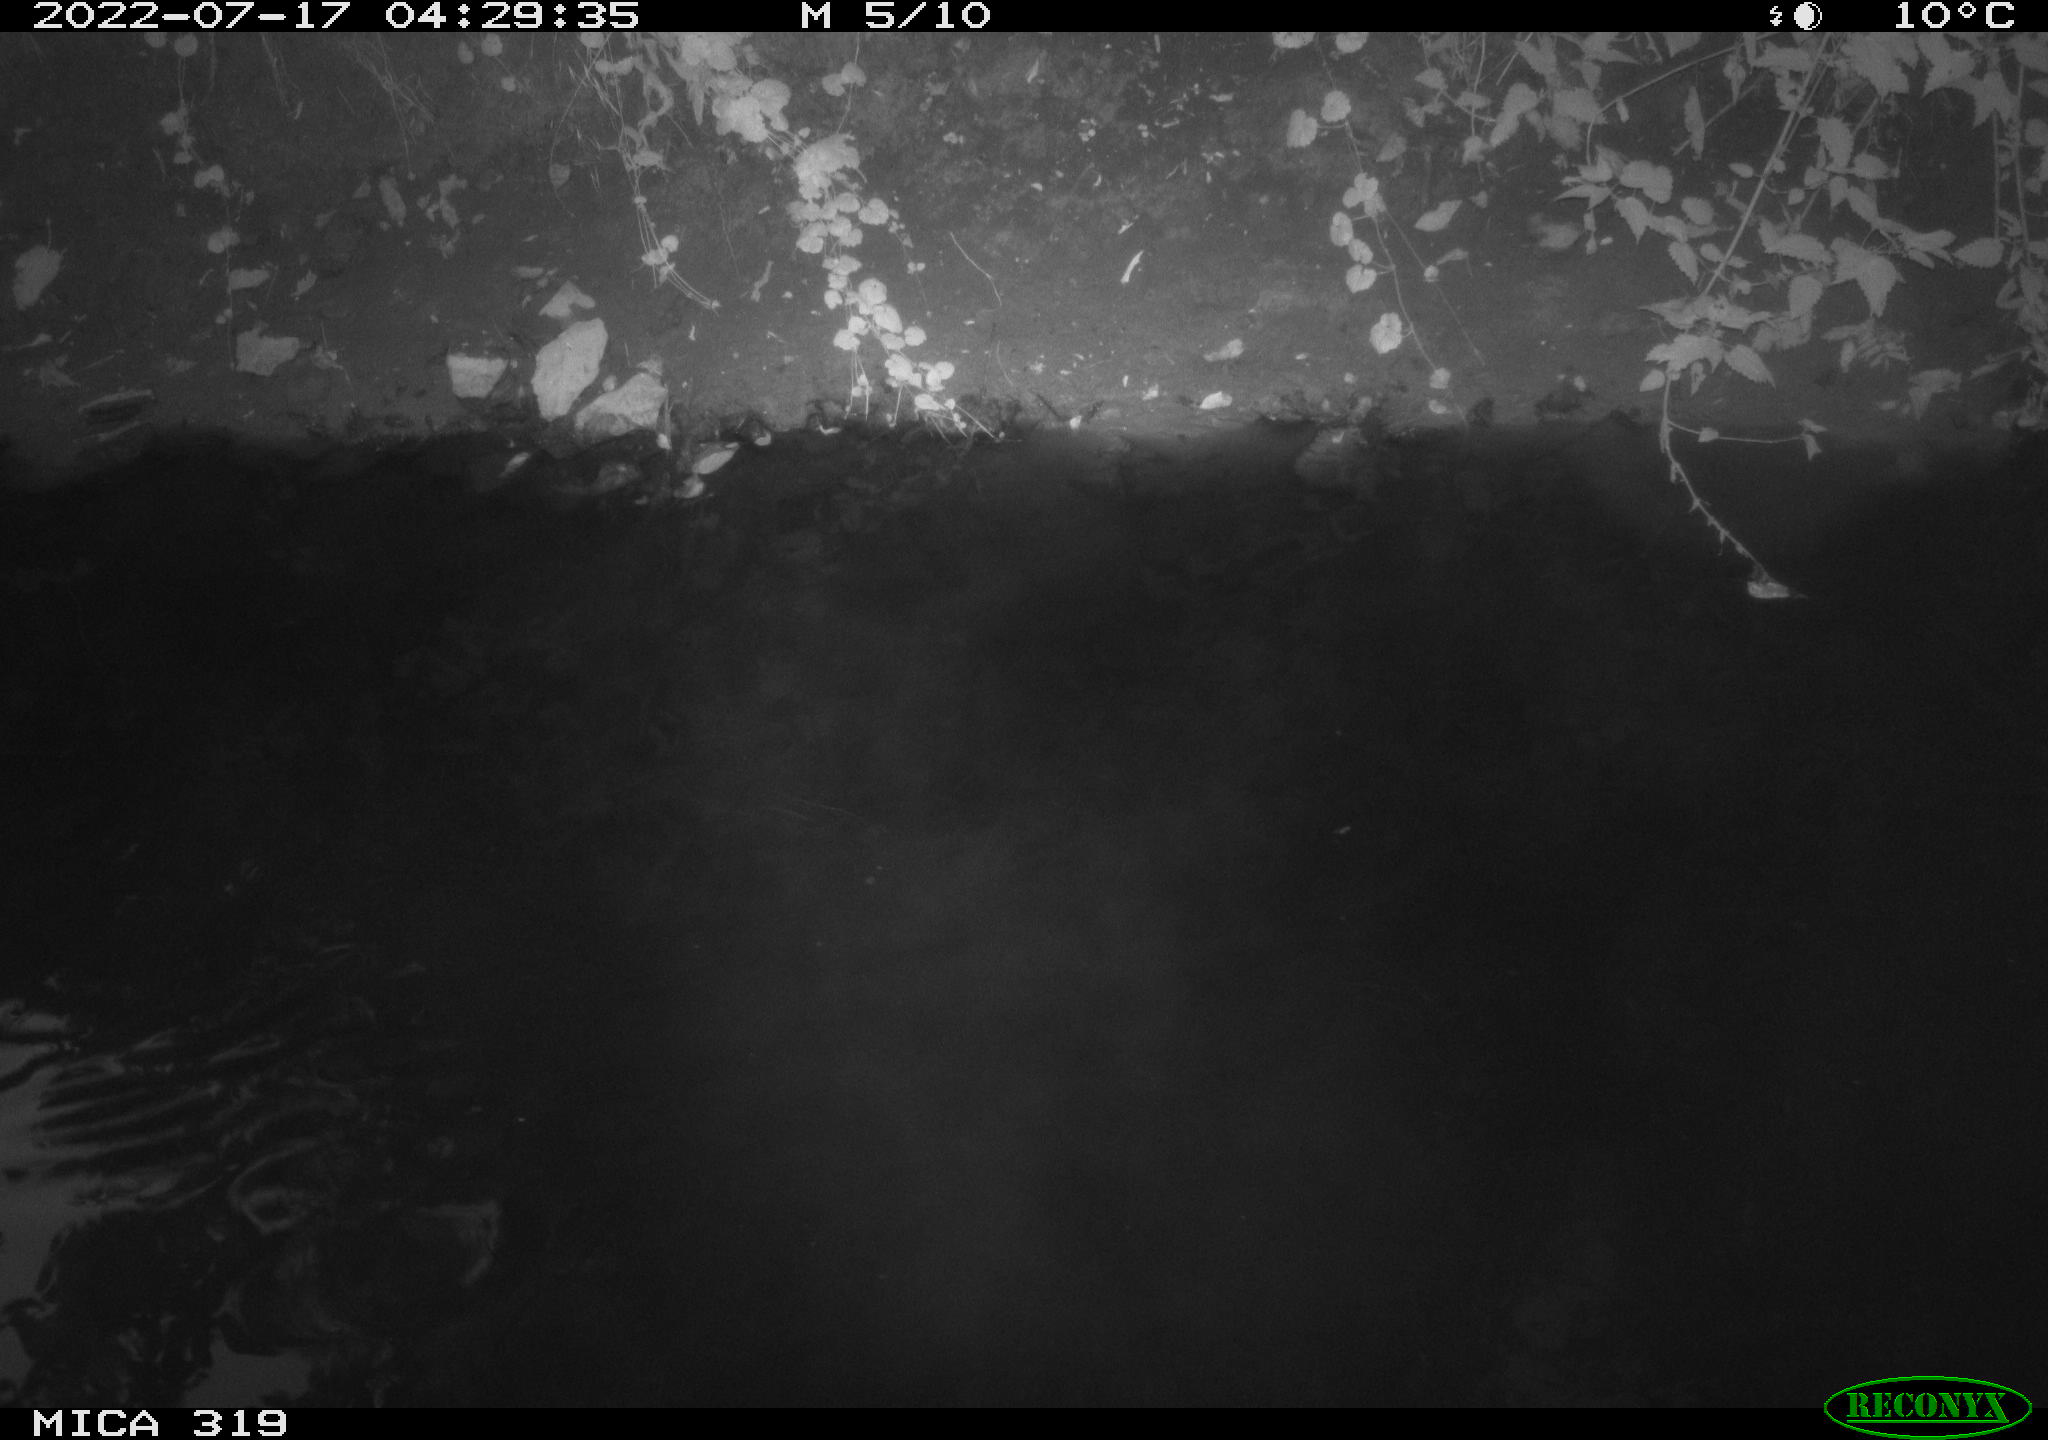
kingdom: Animalia
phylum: Chordata
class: Aves
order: Gruiformes
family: Rallidae
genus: Gallinula
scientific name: Gallinula chloropus
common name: Common moorhen
